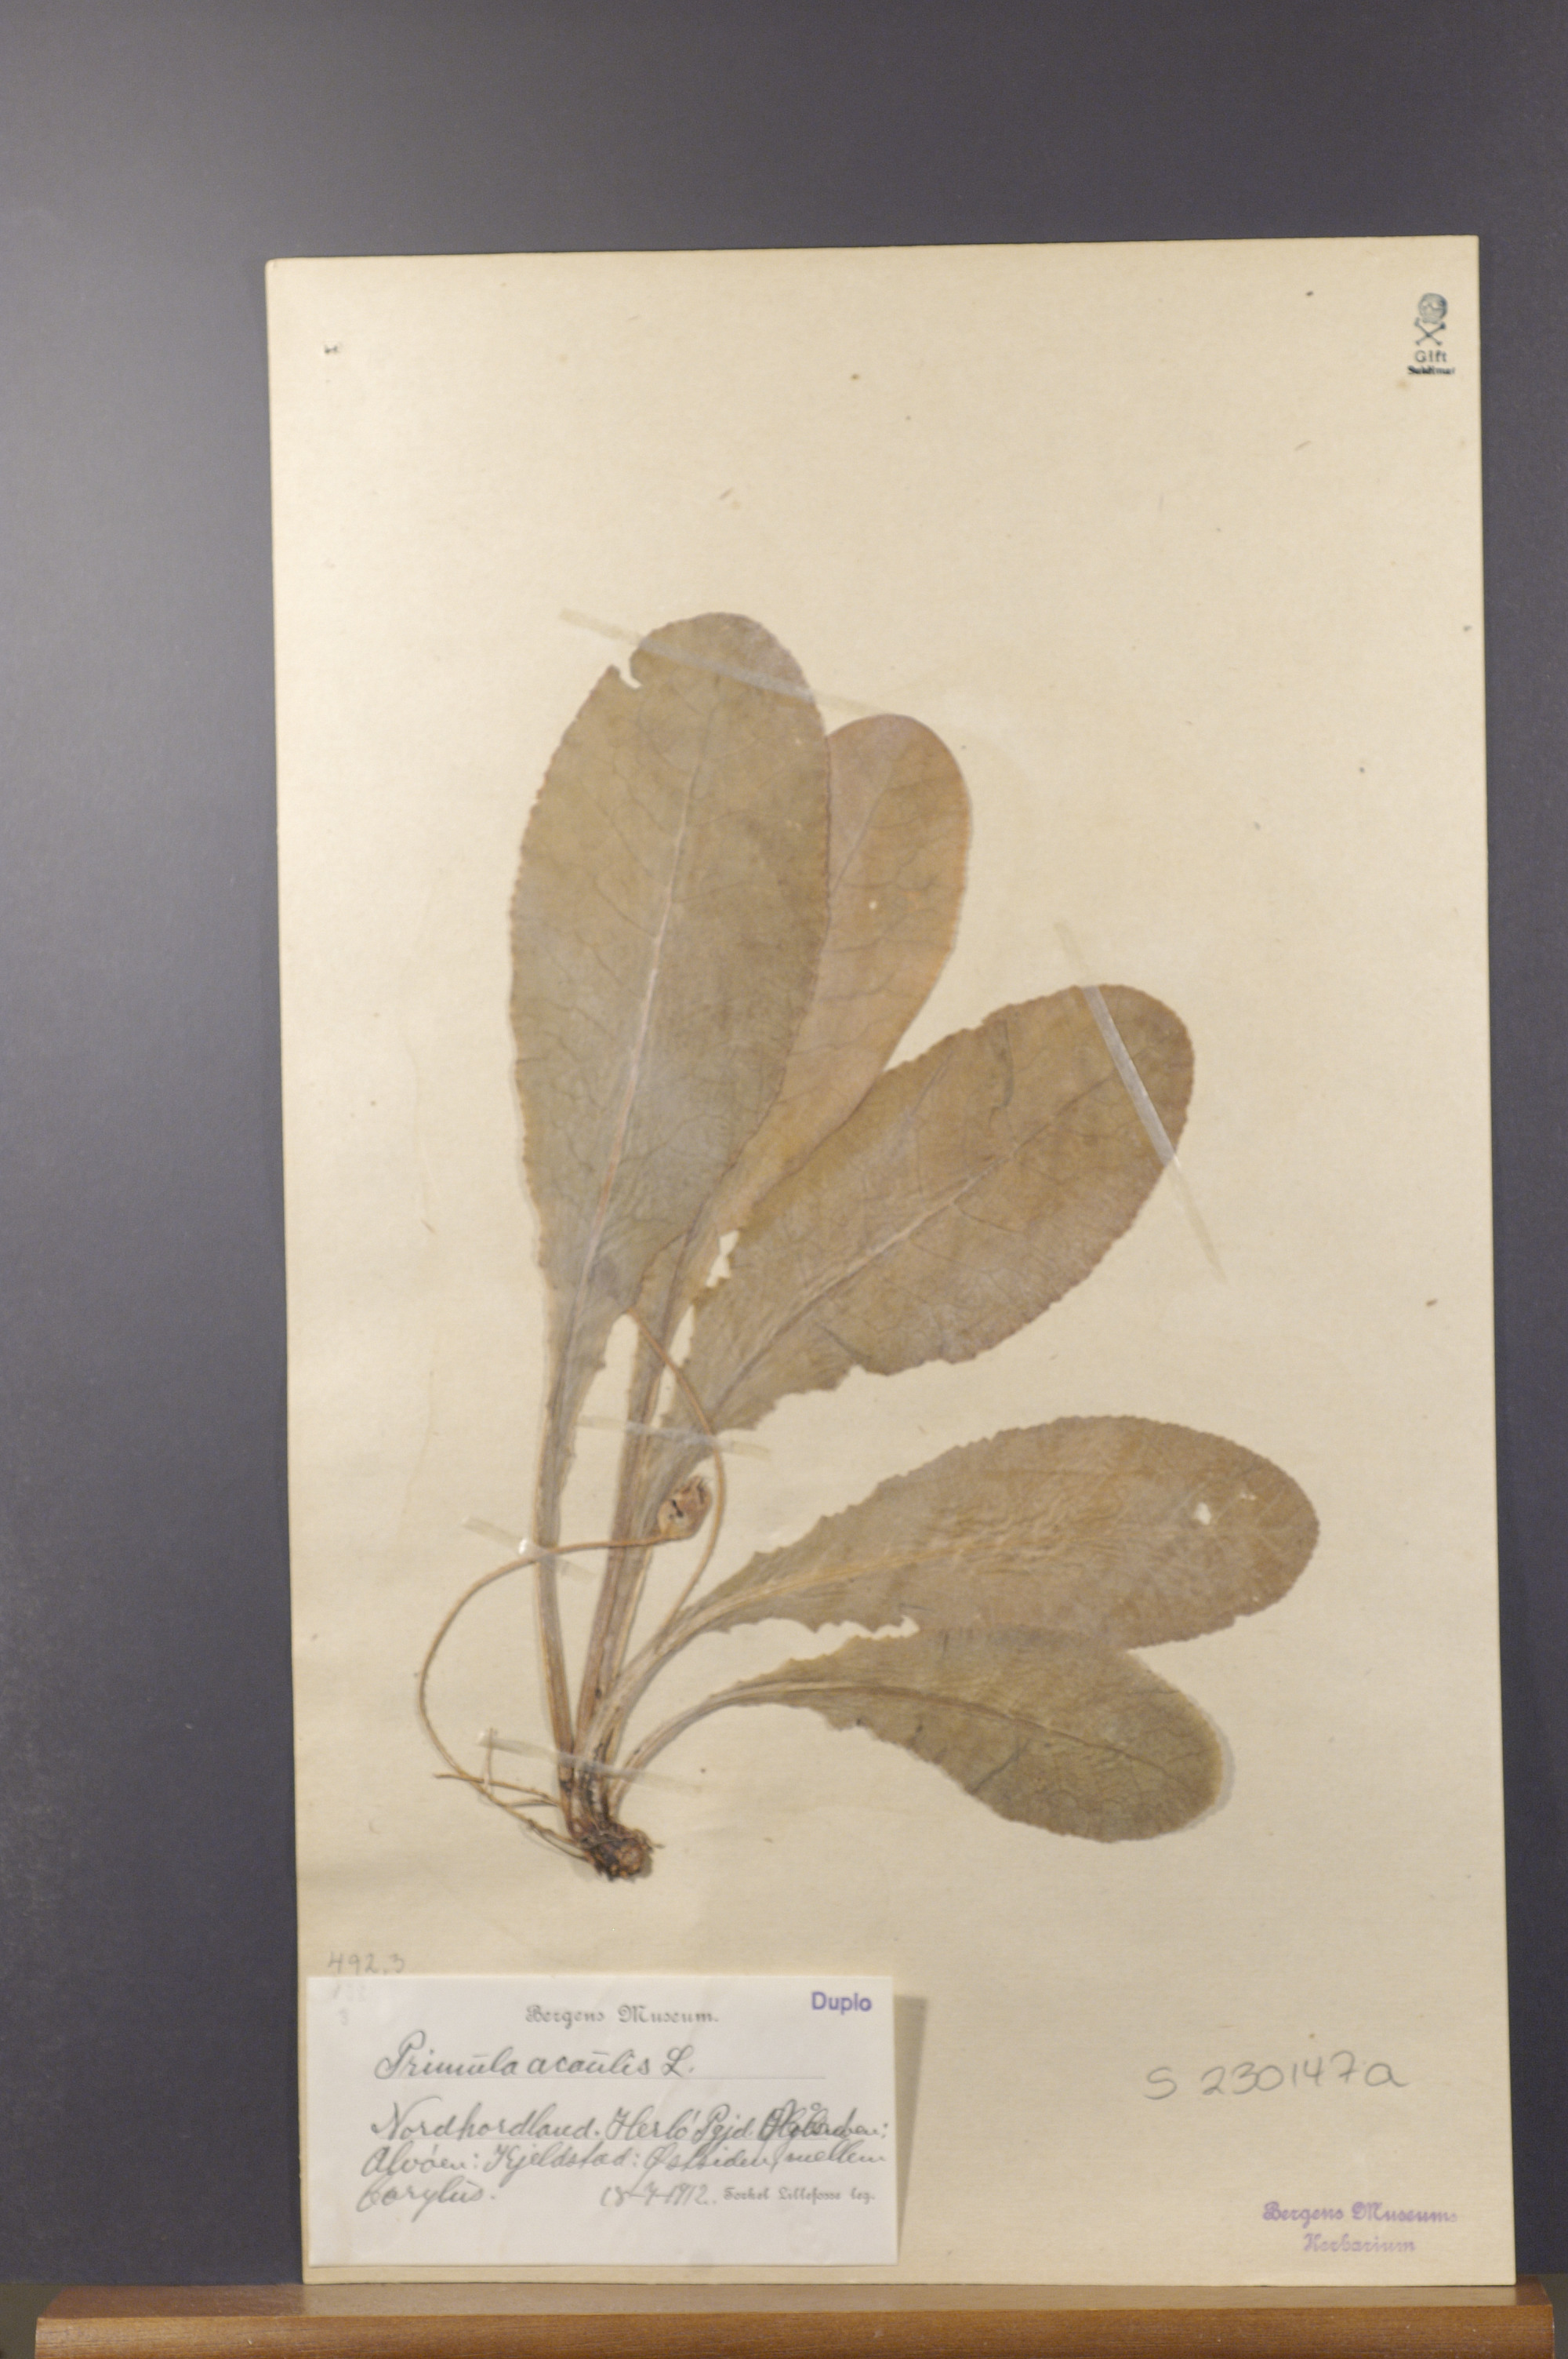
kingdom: Plantae
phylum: Tracheophyta
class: Magnoliopsida
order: Ericales
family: Primulaceae
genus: Primula
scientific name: Primula vulgaris
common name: Primrose
